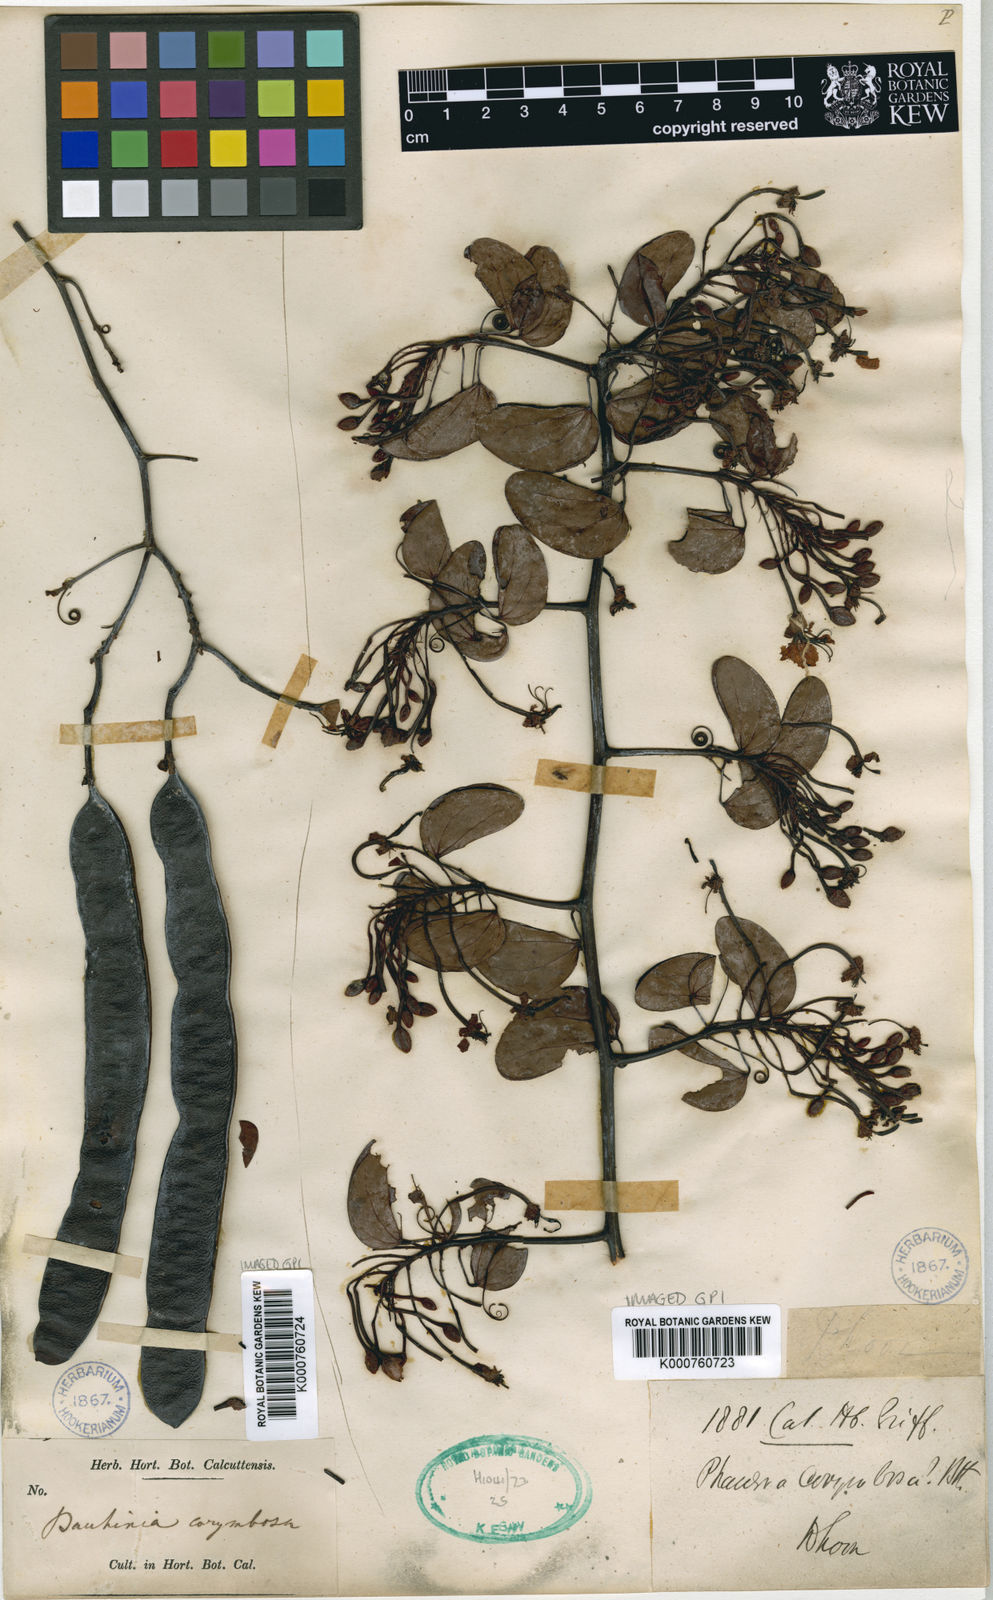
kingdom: Plantae
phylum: Tracheophyta
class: Magnoliopsida
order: Fabales
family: Fabaceae
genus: Cheniella
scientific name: Cheniella corymbosa
